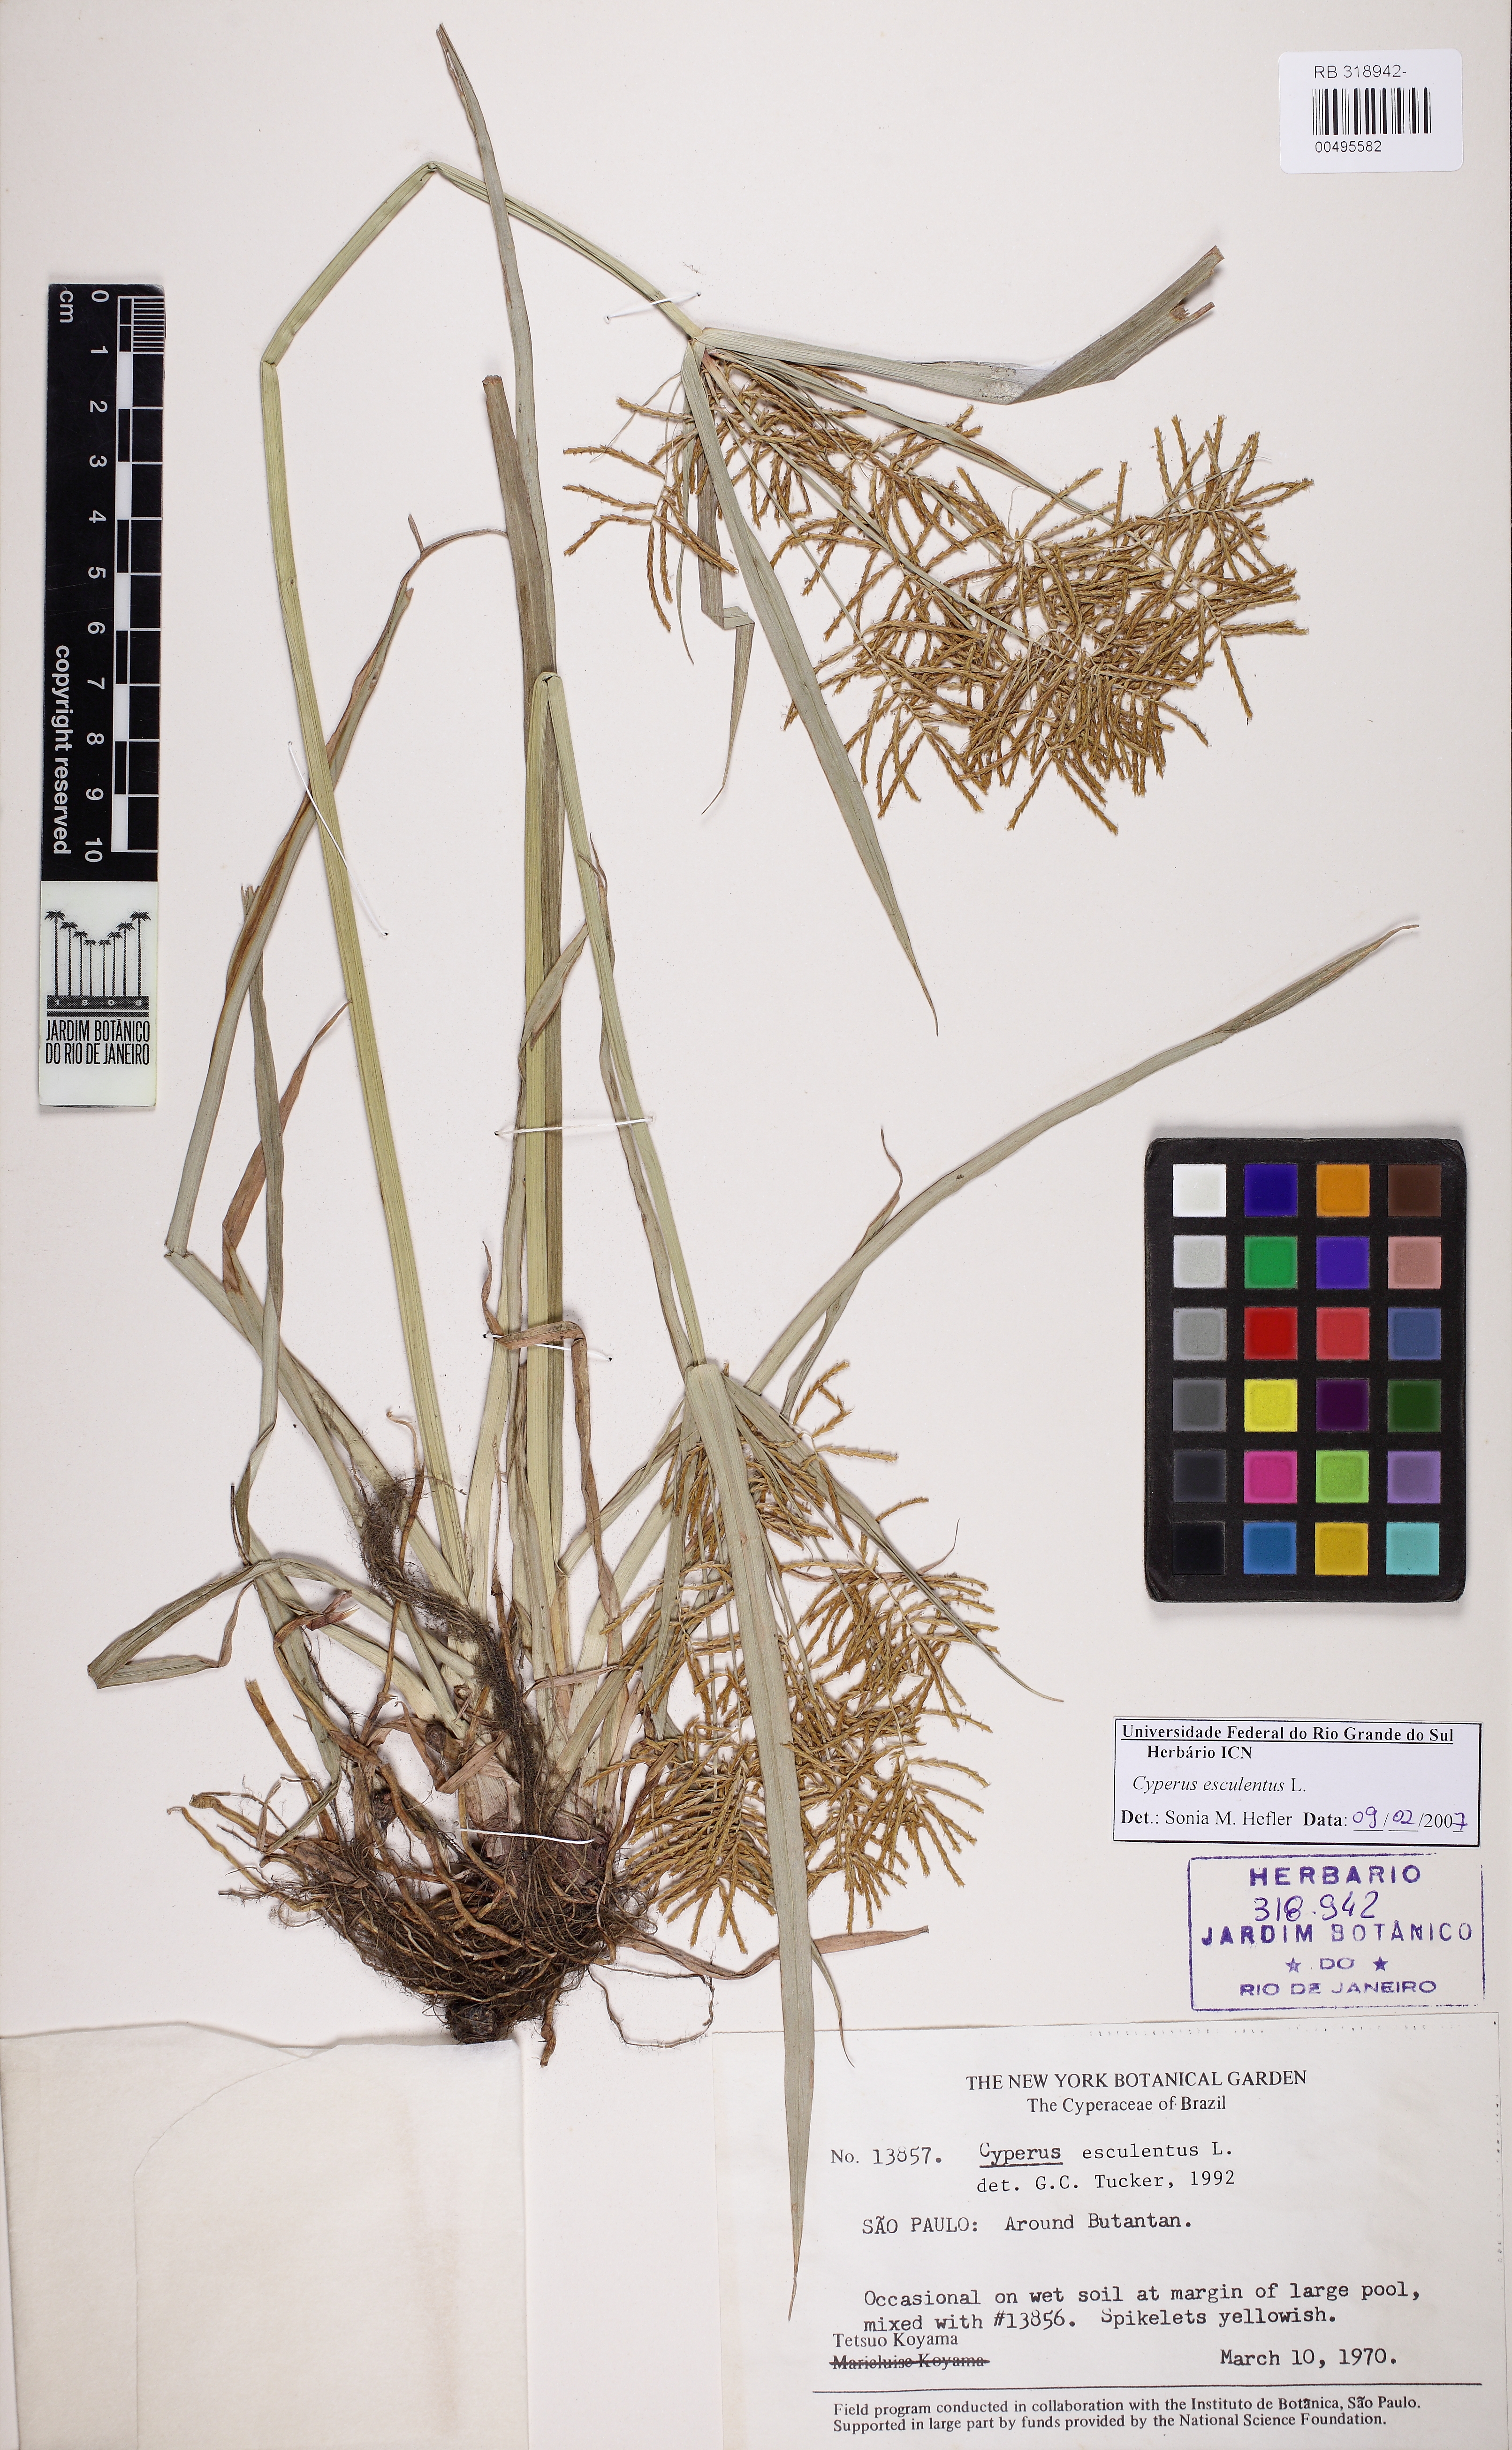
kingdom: Plantae
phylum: Tracheophyta
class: Liliopsida
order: Poales
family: Cyperaceae
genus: Cyperus
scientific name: Cyperus esculentus
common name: Yellow nutsedge
